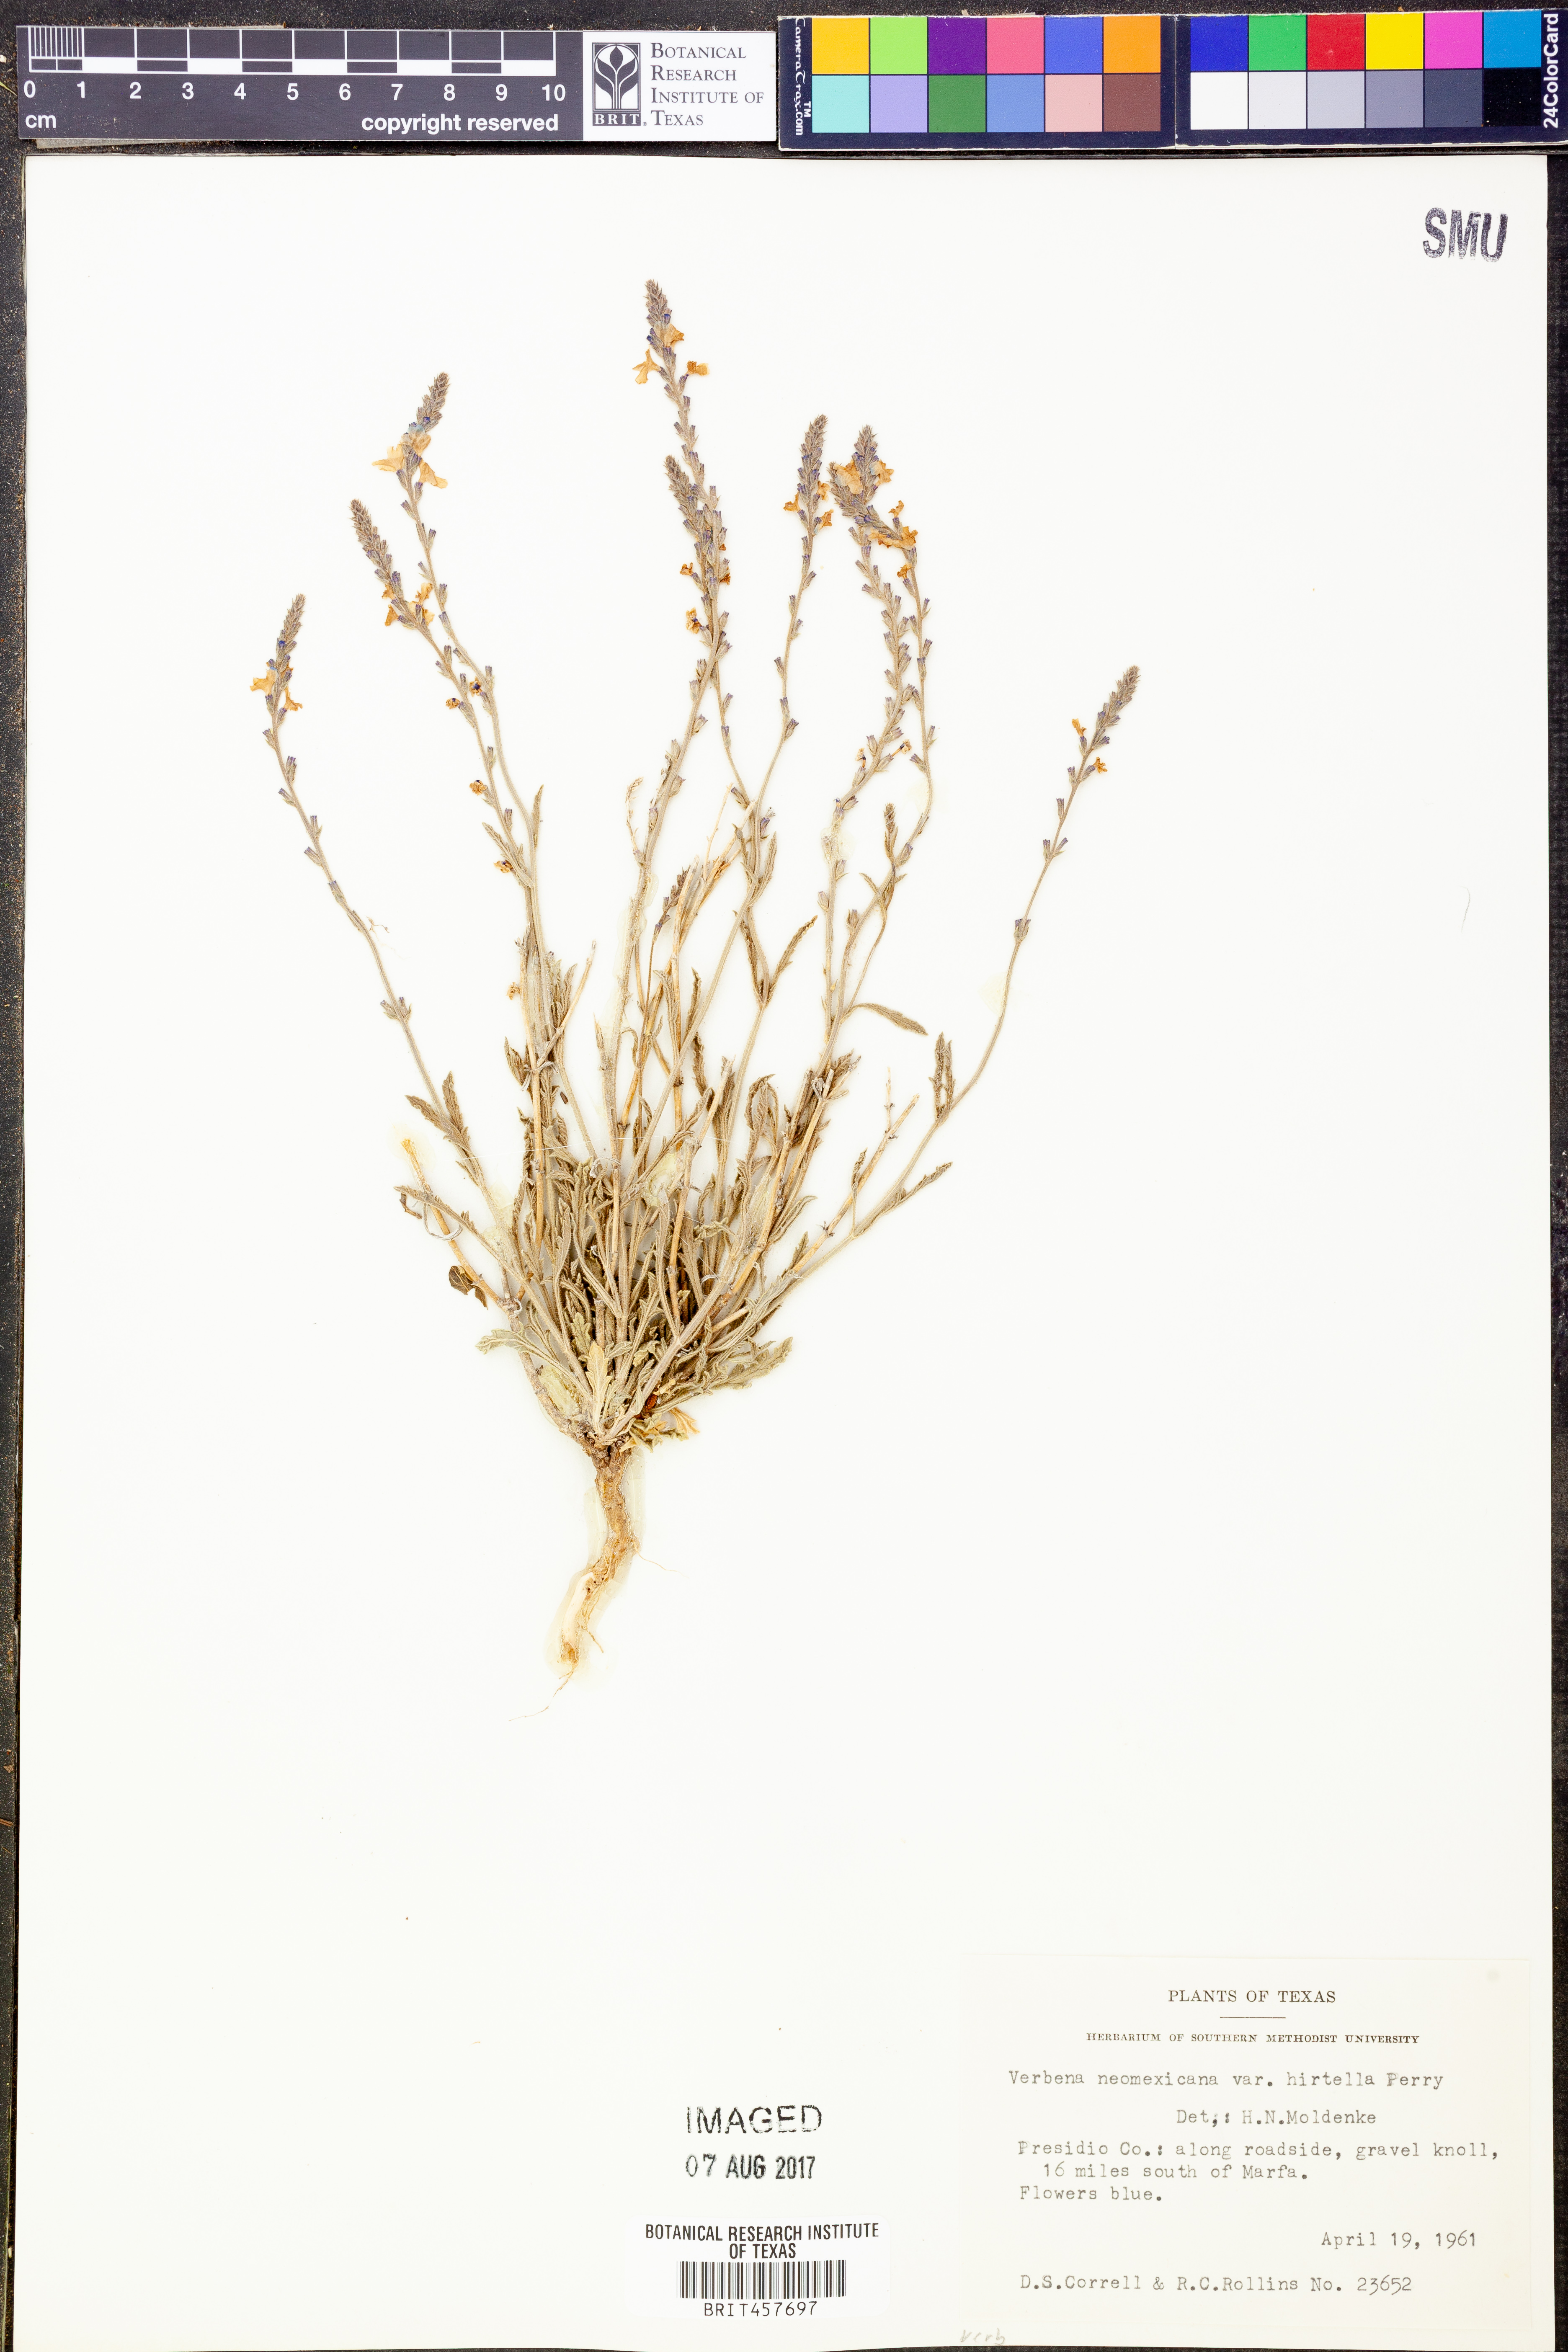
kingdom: Plantae
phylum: Tracheophyta
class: Magnoliopsida
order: Lamiales
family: Verbenaceae
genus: Verbena
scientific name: Verbena neomexicana
